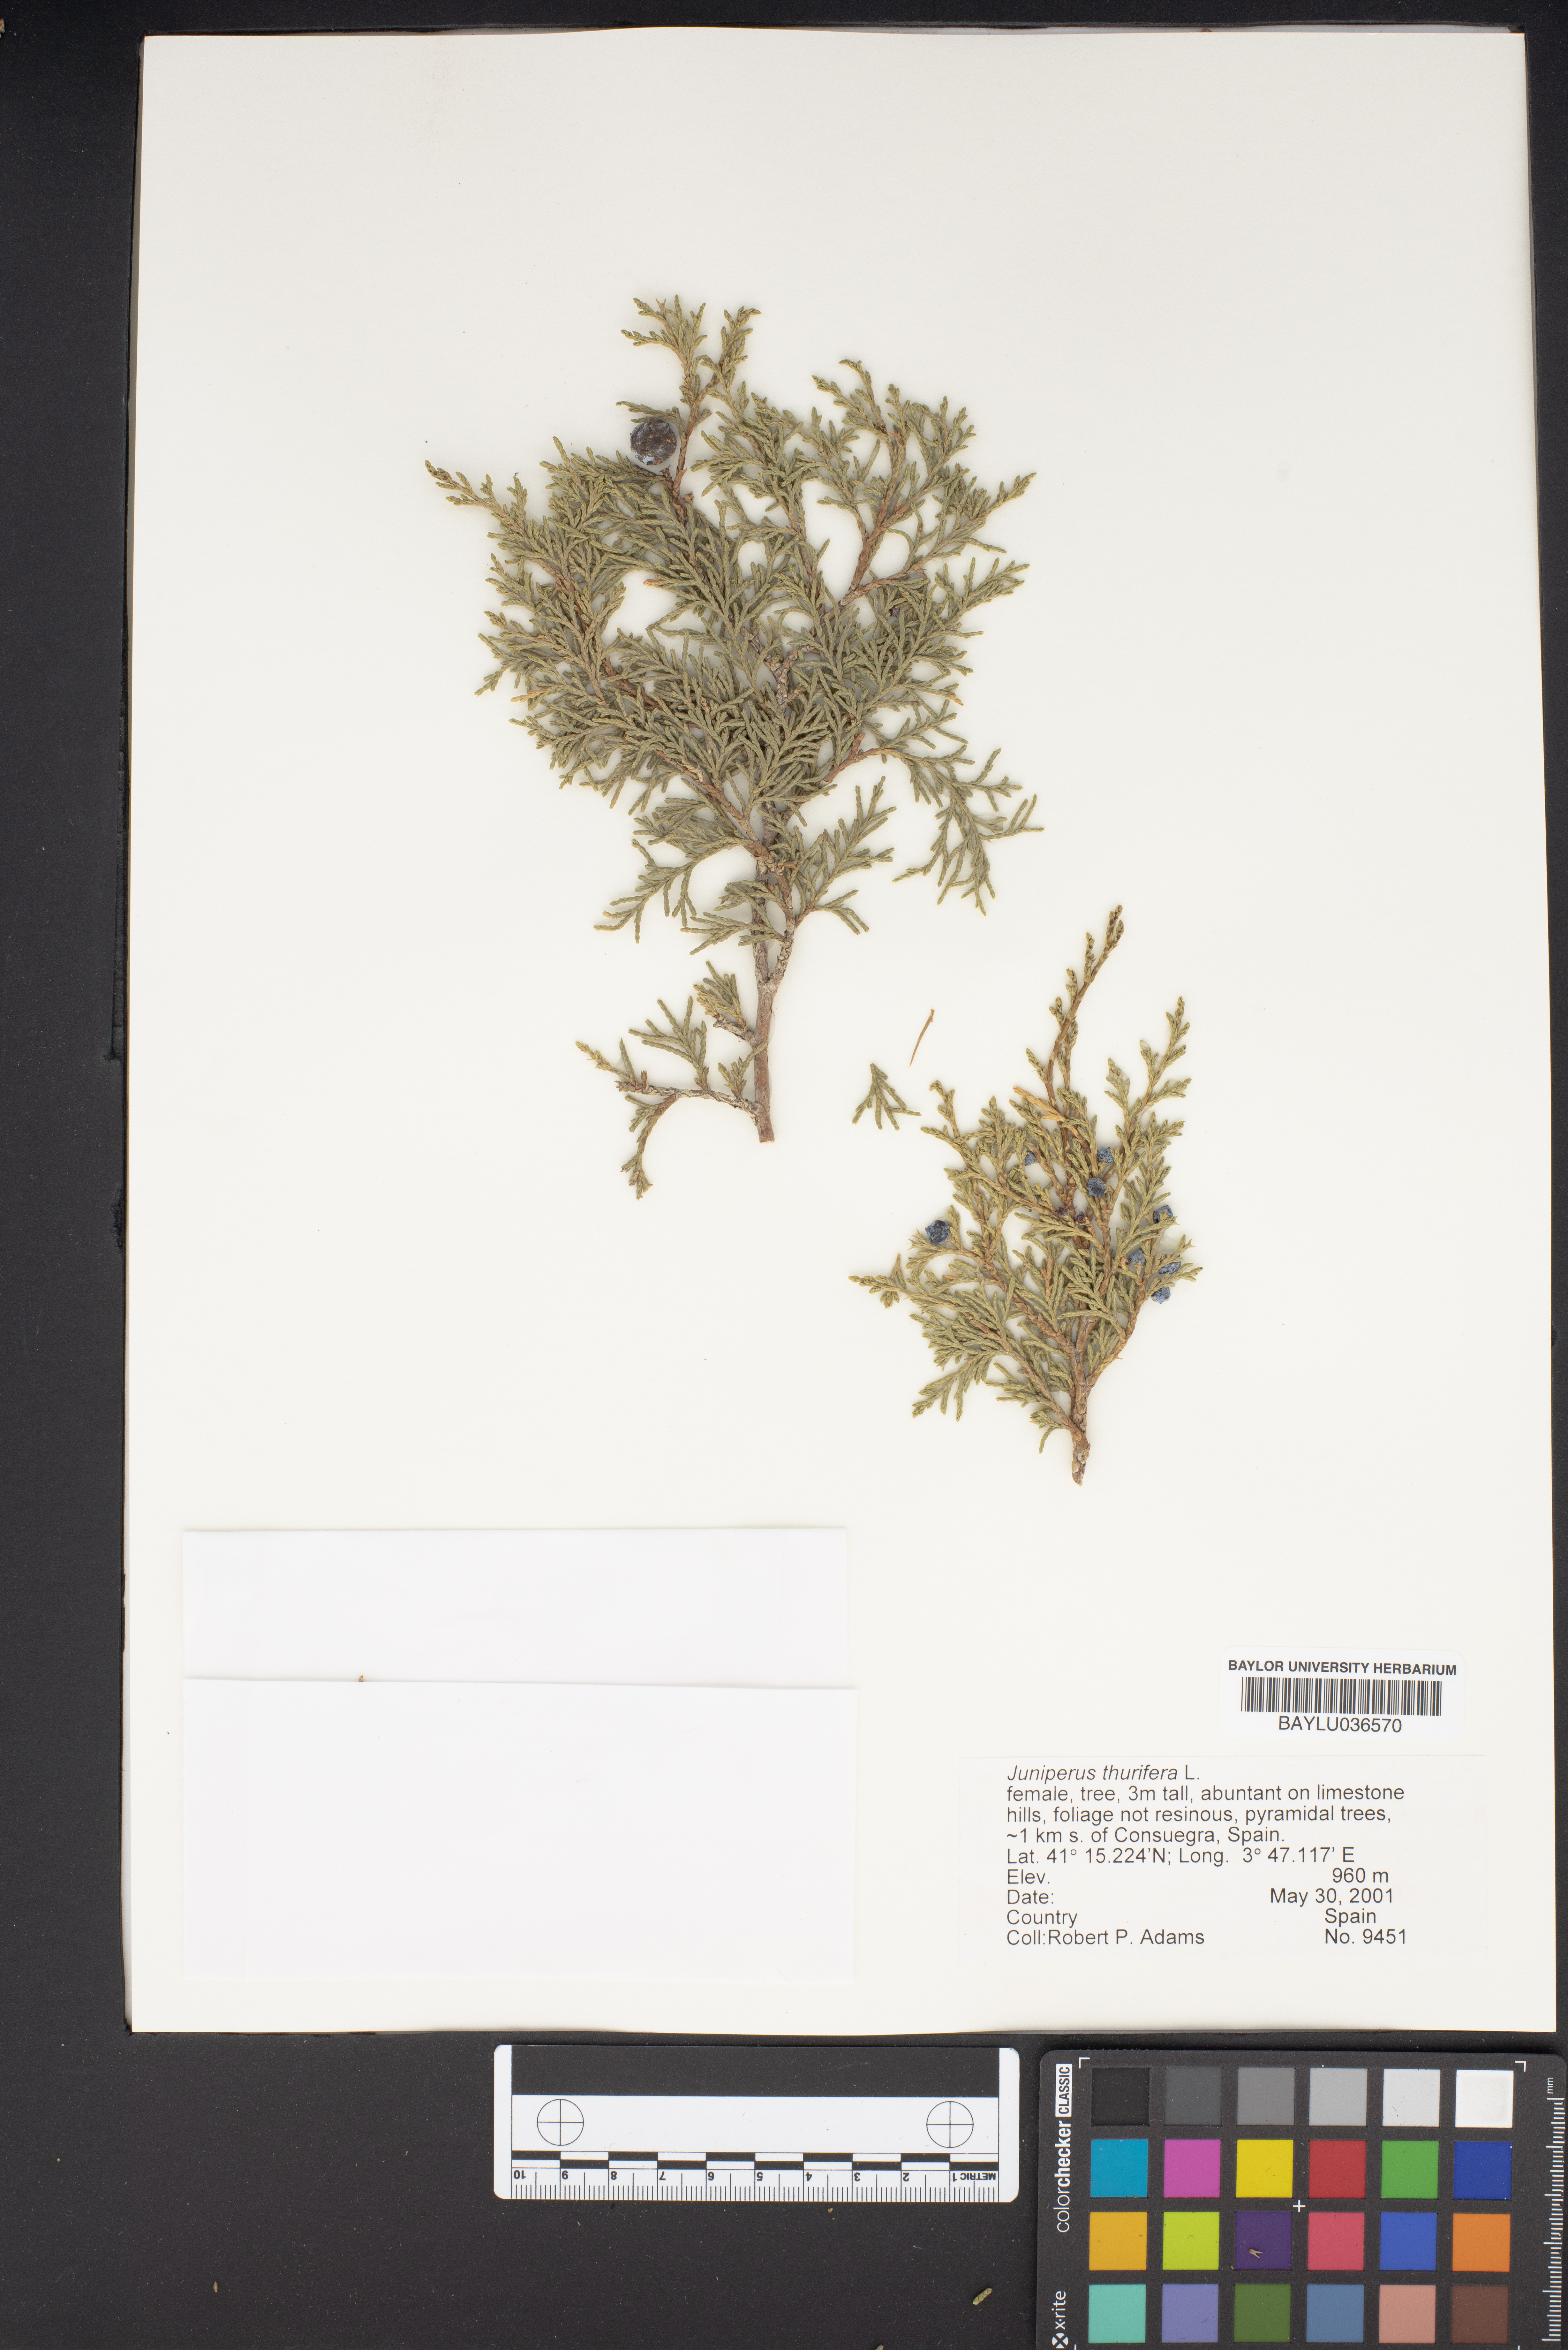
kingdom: Plantae
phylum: Tracheophyta
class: Pinopsida
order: Pinales
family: Cupressaceae
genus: Juniperus
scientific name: Juniperus thurifera
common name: Incense juniper
